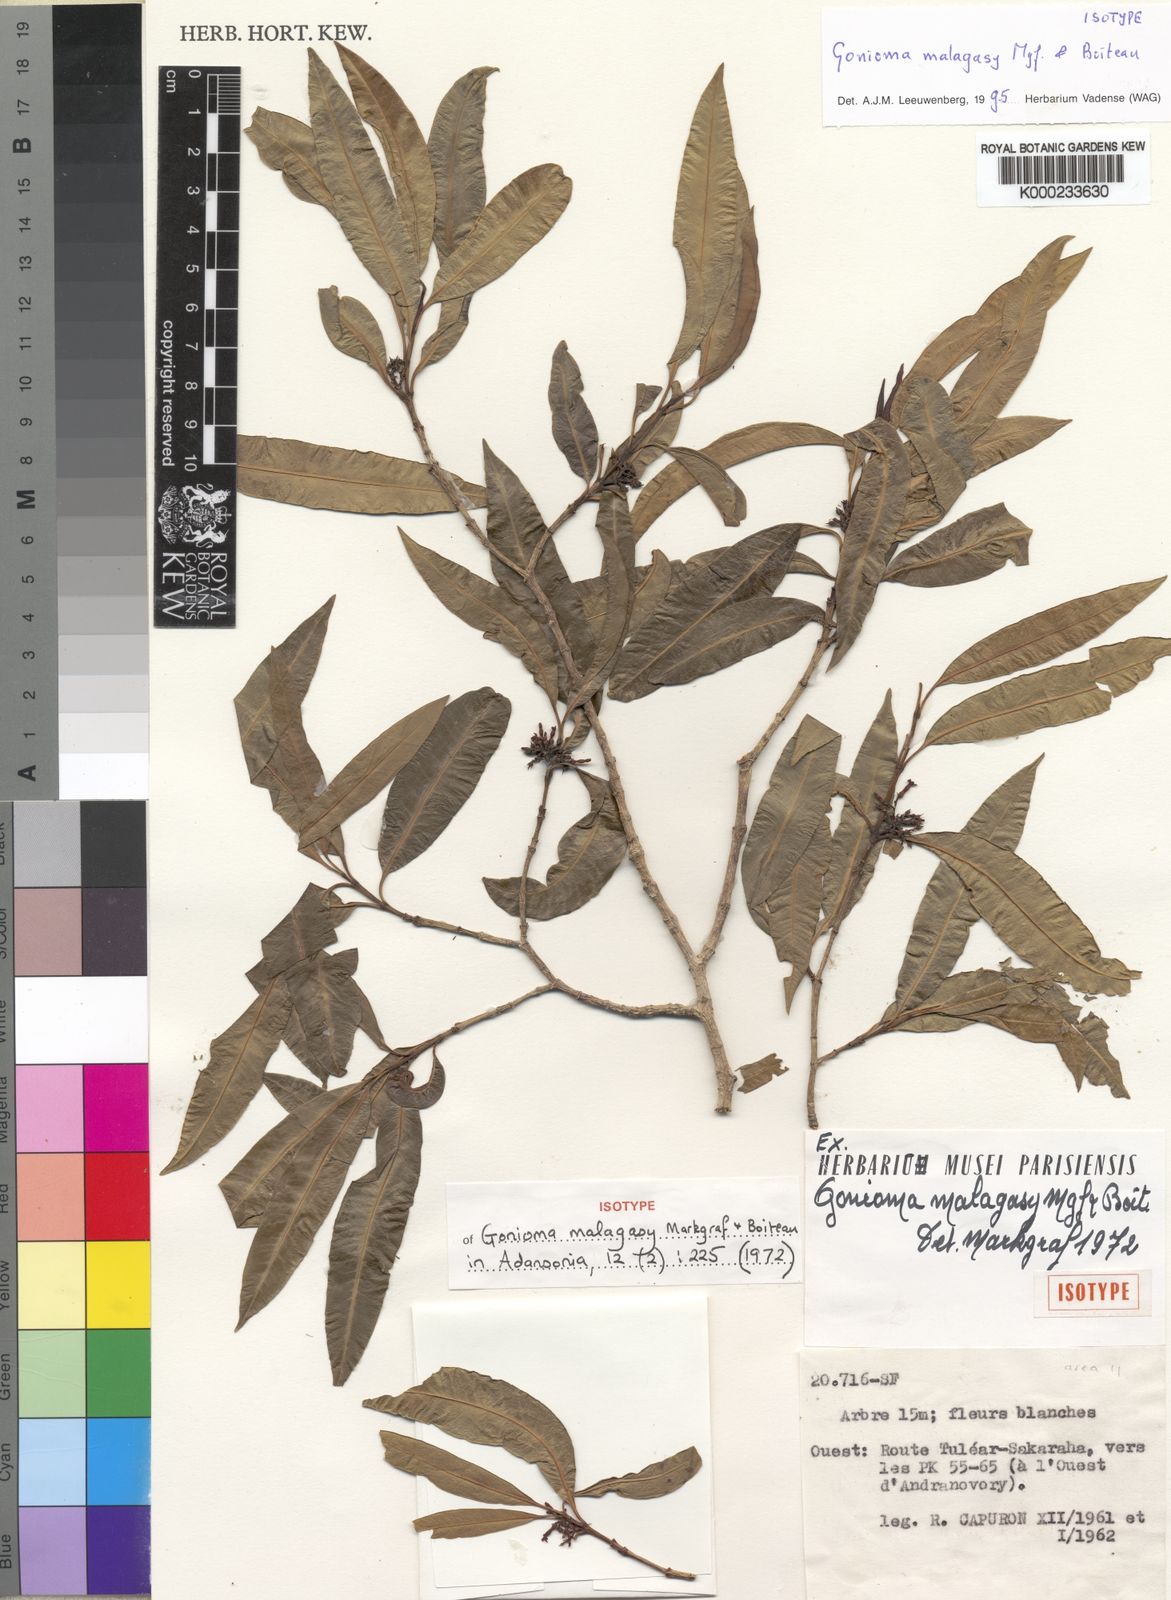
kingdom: Plantae
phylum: Tracheophyta
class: Magnoliopsida
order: Gentianales
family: Apocynaceae
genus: Gonioma
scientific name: Gonioma malagasy
